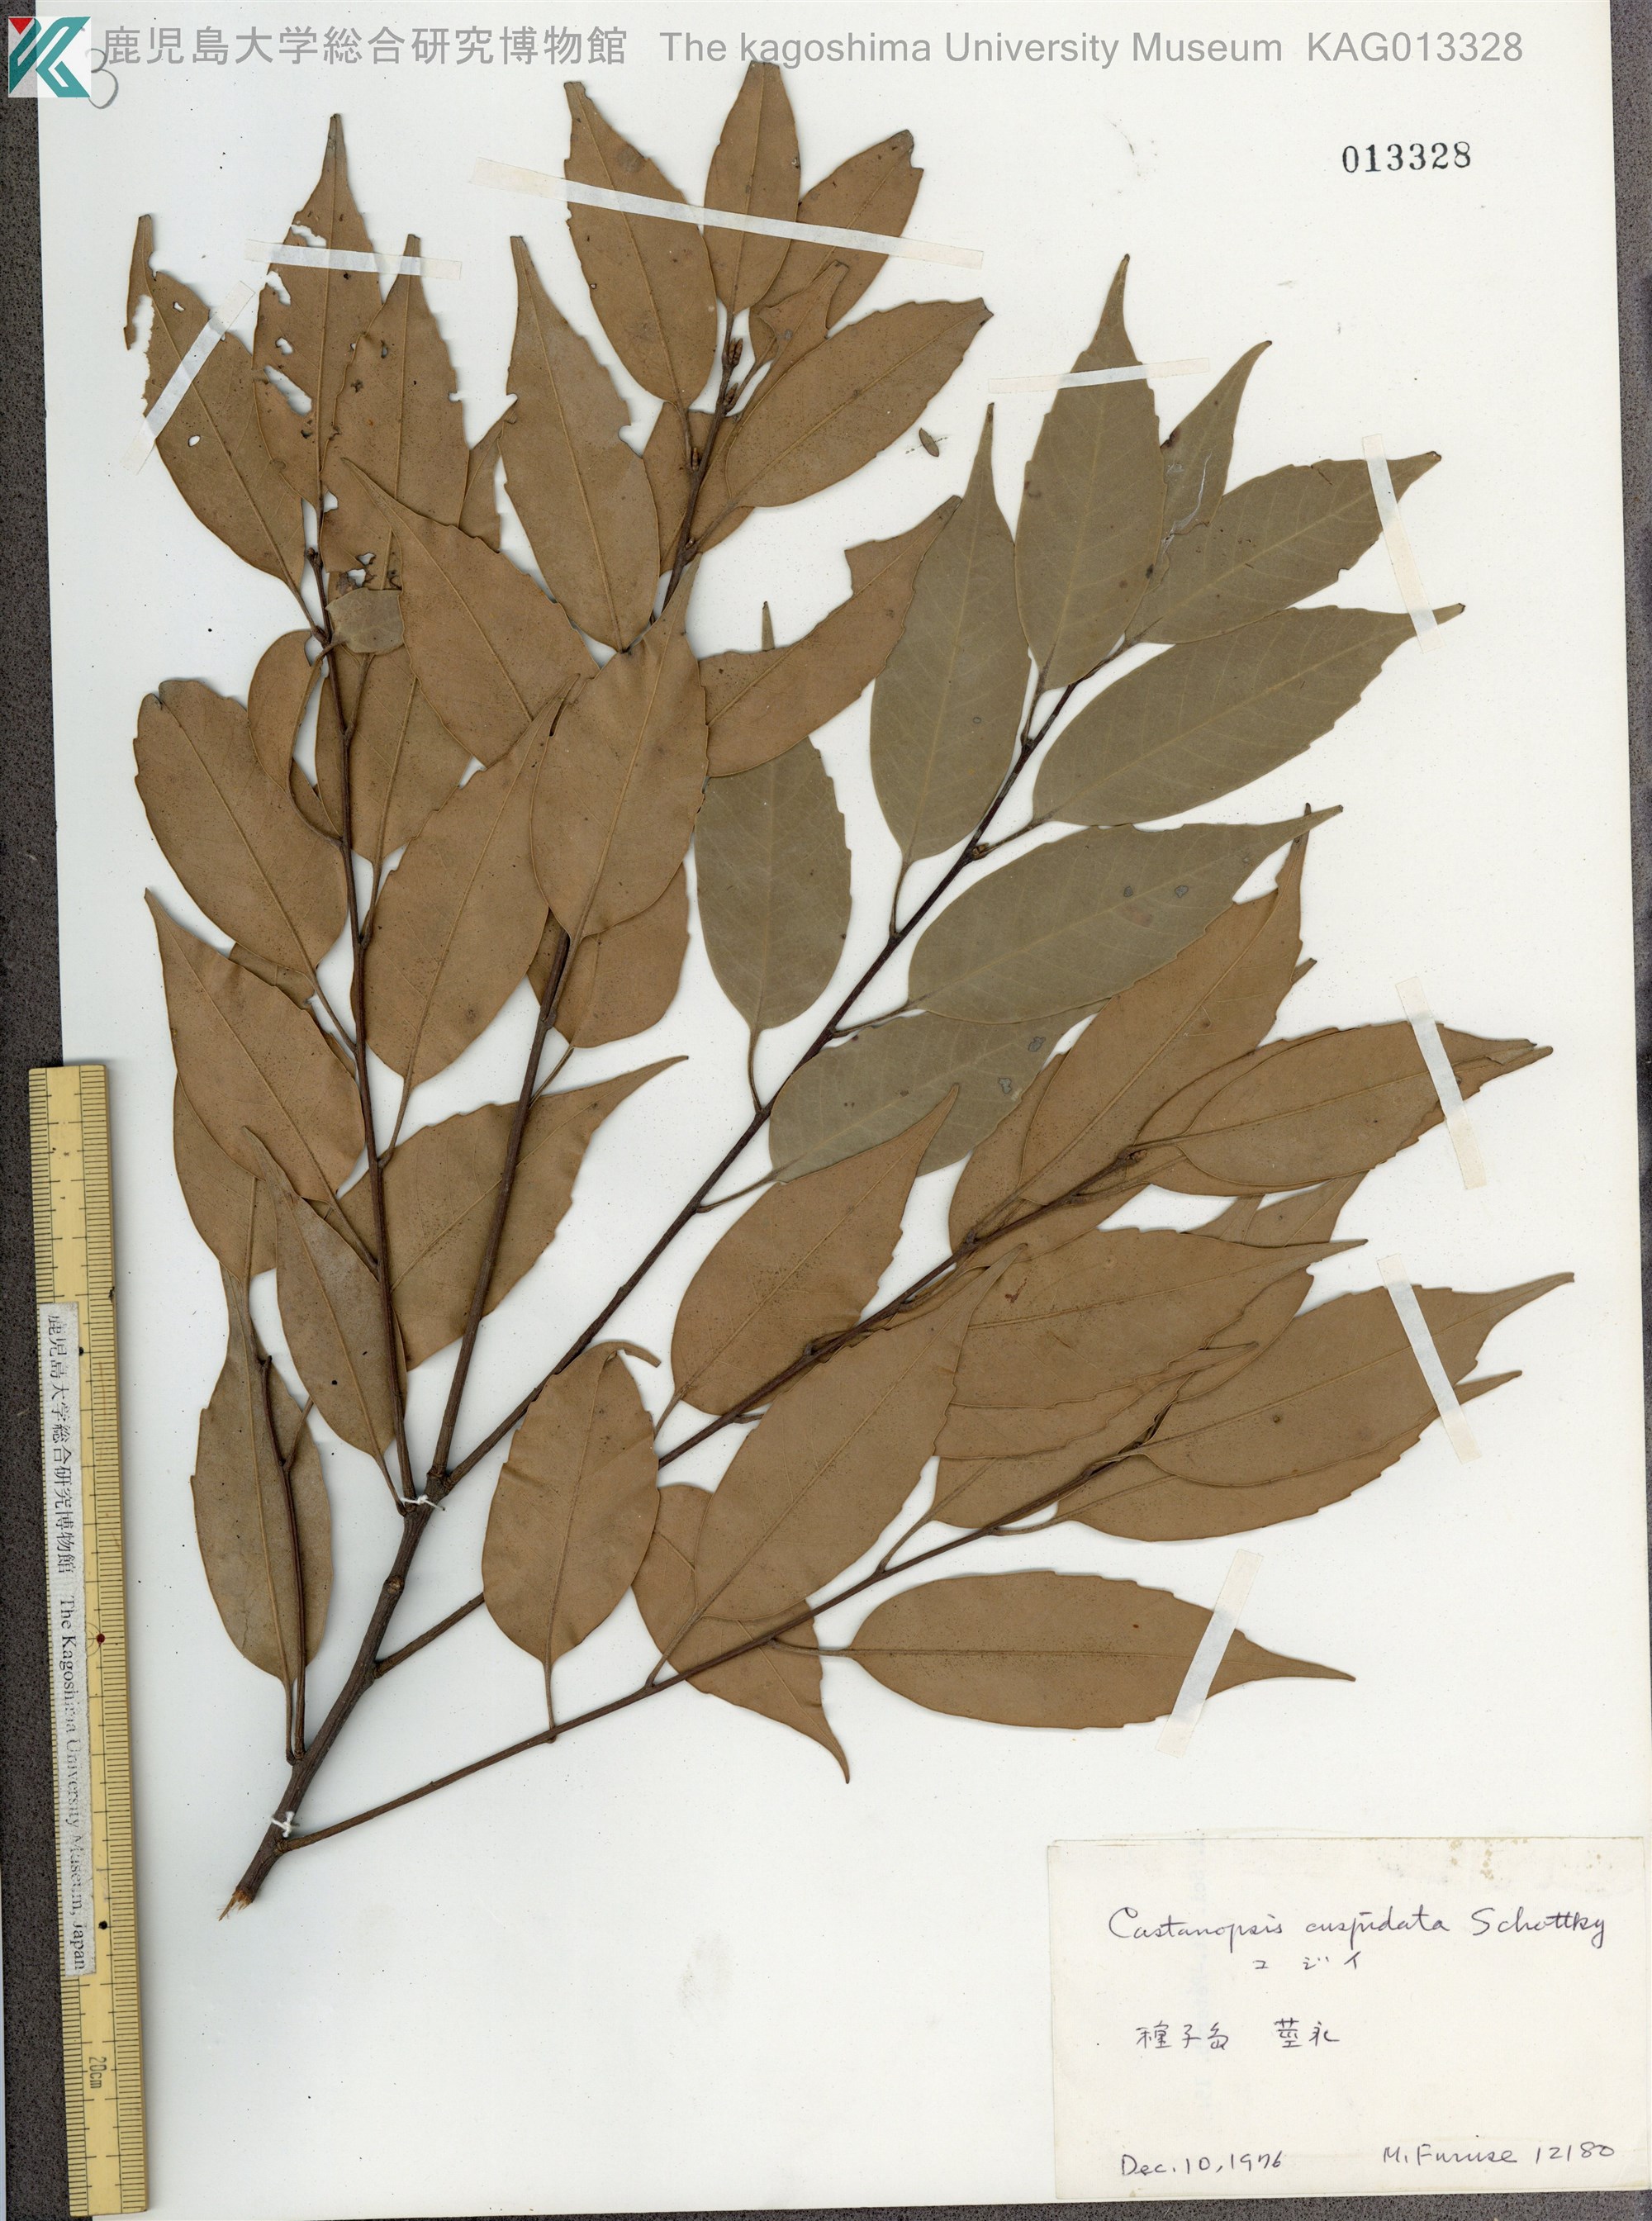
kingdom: Plantae
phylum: Tracheophyta
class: Magnoliopsida
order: Fagales
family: Fagaceae
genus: Castanopsis
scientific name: Castanopsis cuspidata
